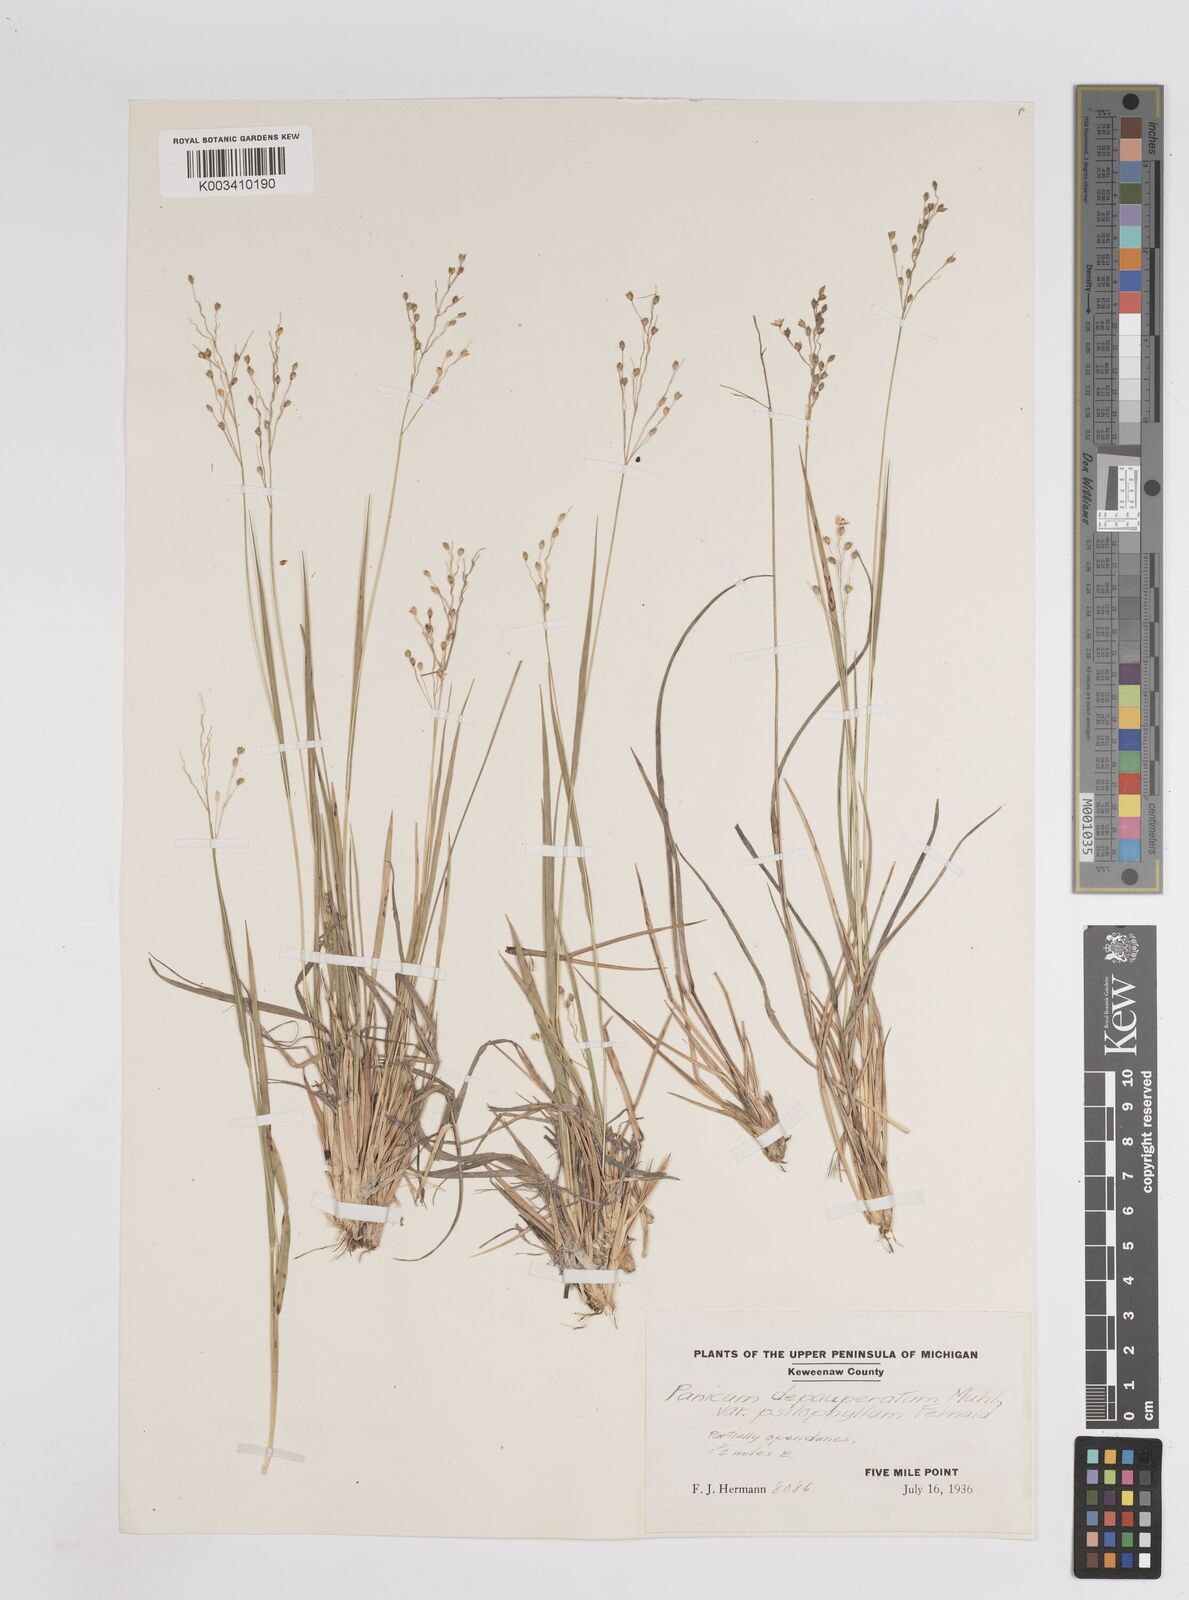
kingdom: Plantae
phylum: Tracheophyta
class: Liliopsida
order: Poales
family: Poaceae
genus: Dichanthelium
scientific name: Dichanthelium depauperatum
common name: Depauperate panicgrass
